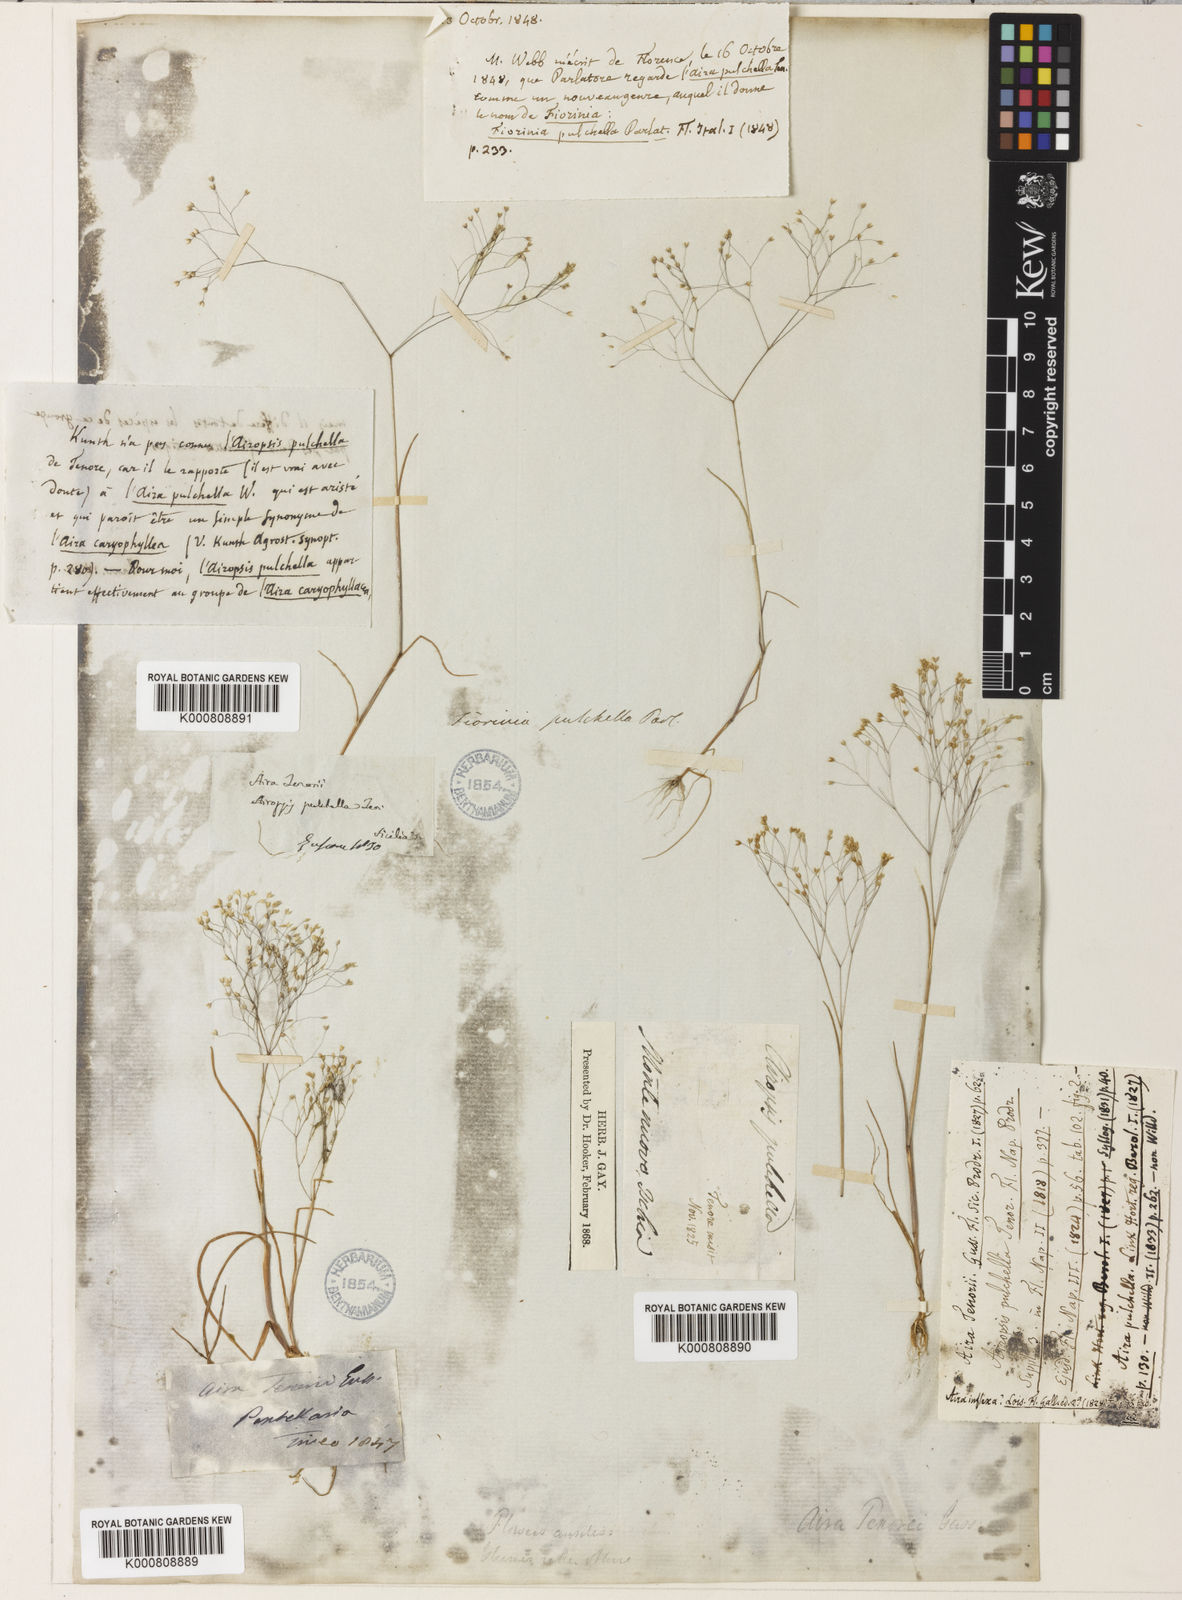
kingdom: Plantae
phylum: Tracheophyta
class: Liliopsida
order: Poales
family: Poaceae
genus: Aira
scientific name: Aira tenorei
